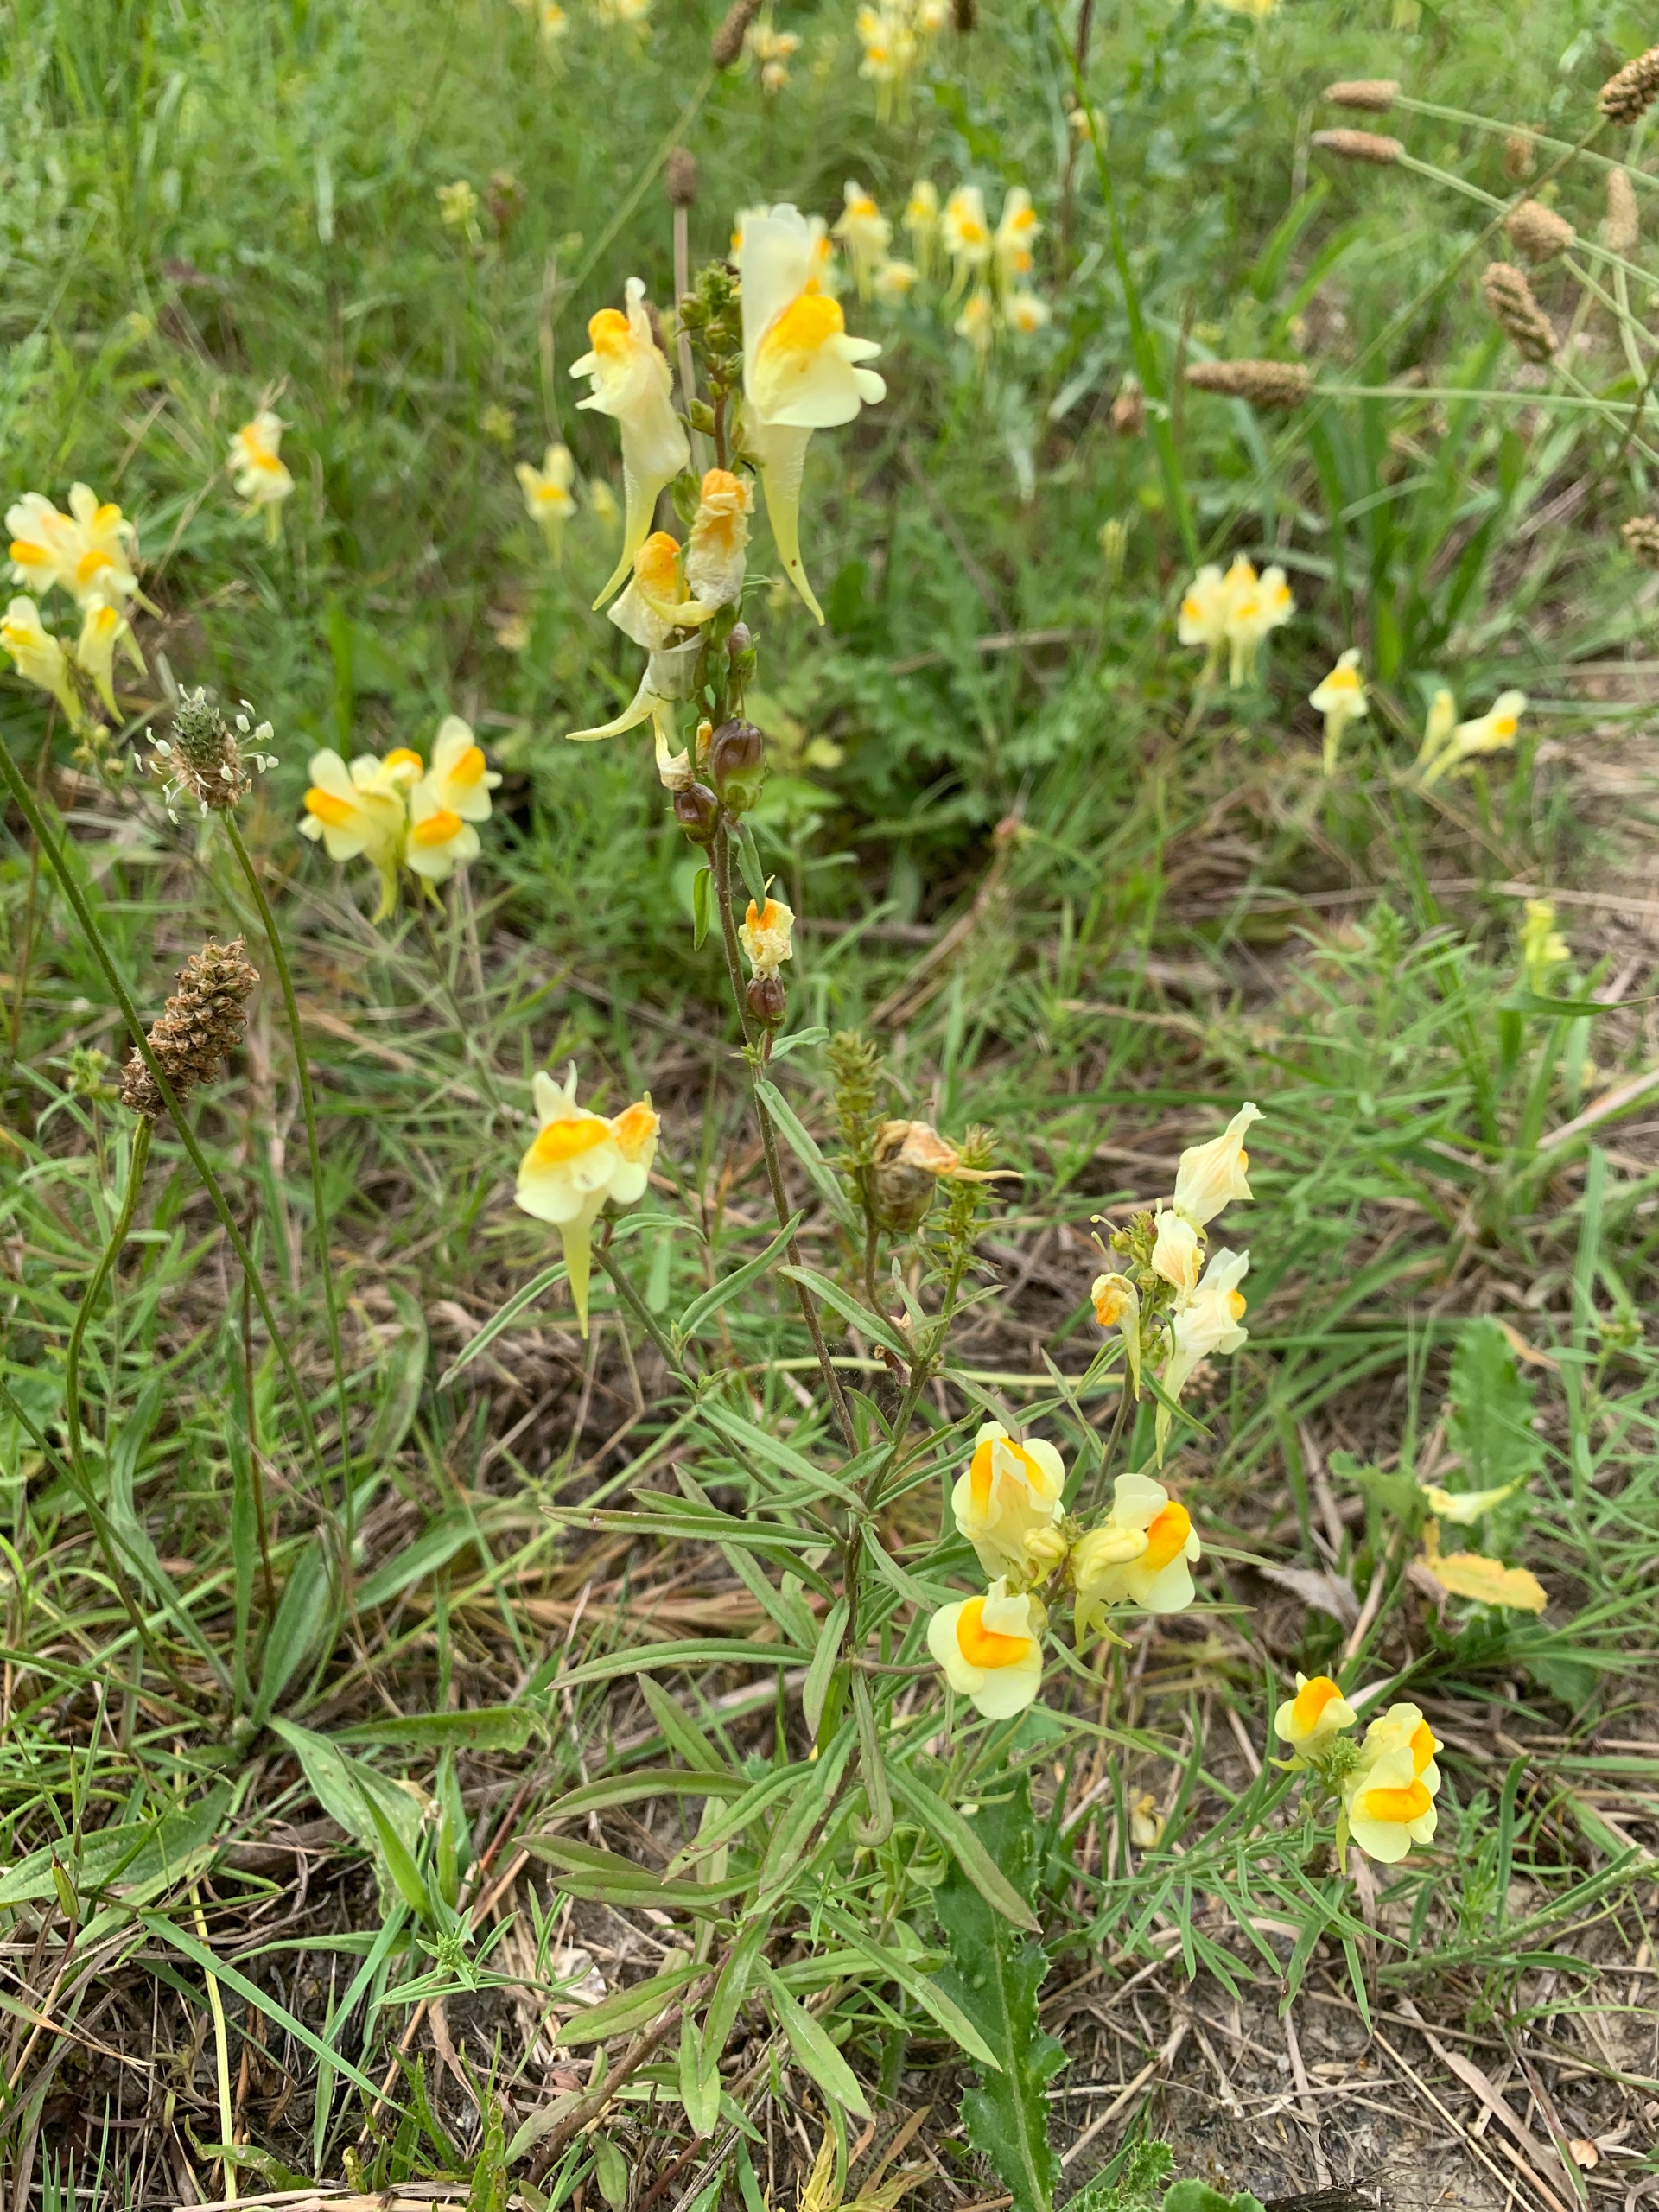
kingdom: Plantae
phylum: Tracheophyta
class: Magnoliopsida
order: Lamiales
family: Plantaginaceae
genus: Linaria
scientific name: Linaria vulgaris
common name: Almindelig torskemund
